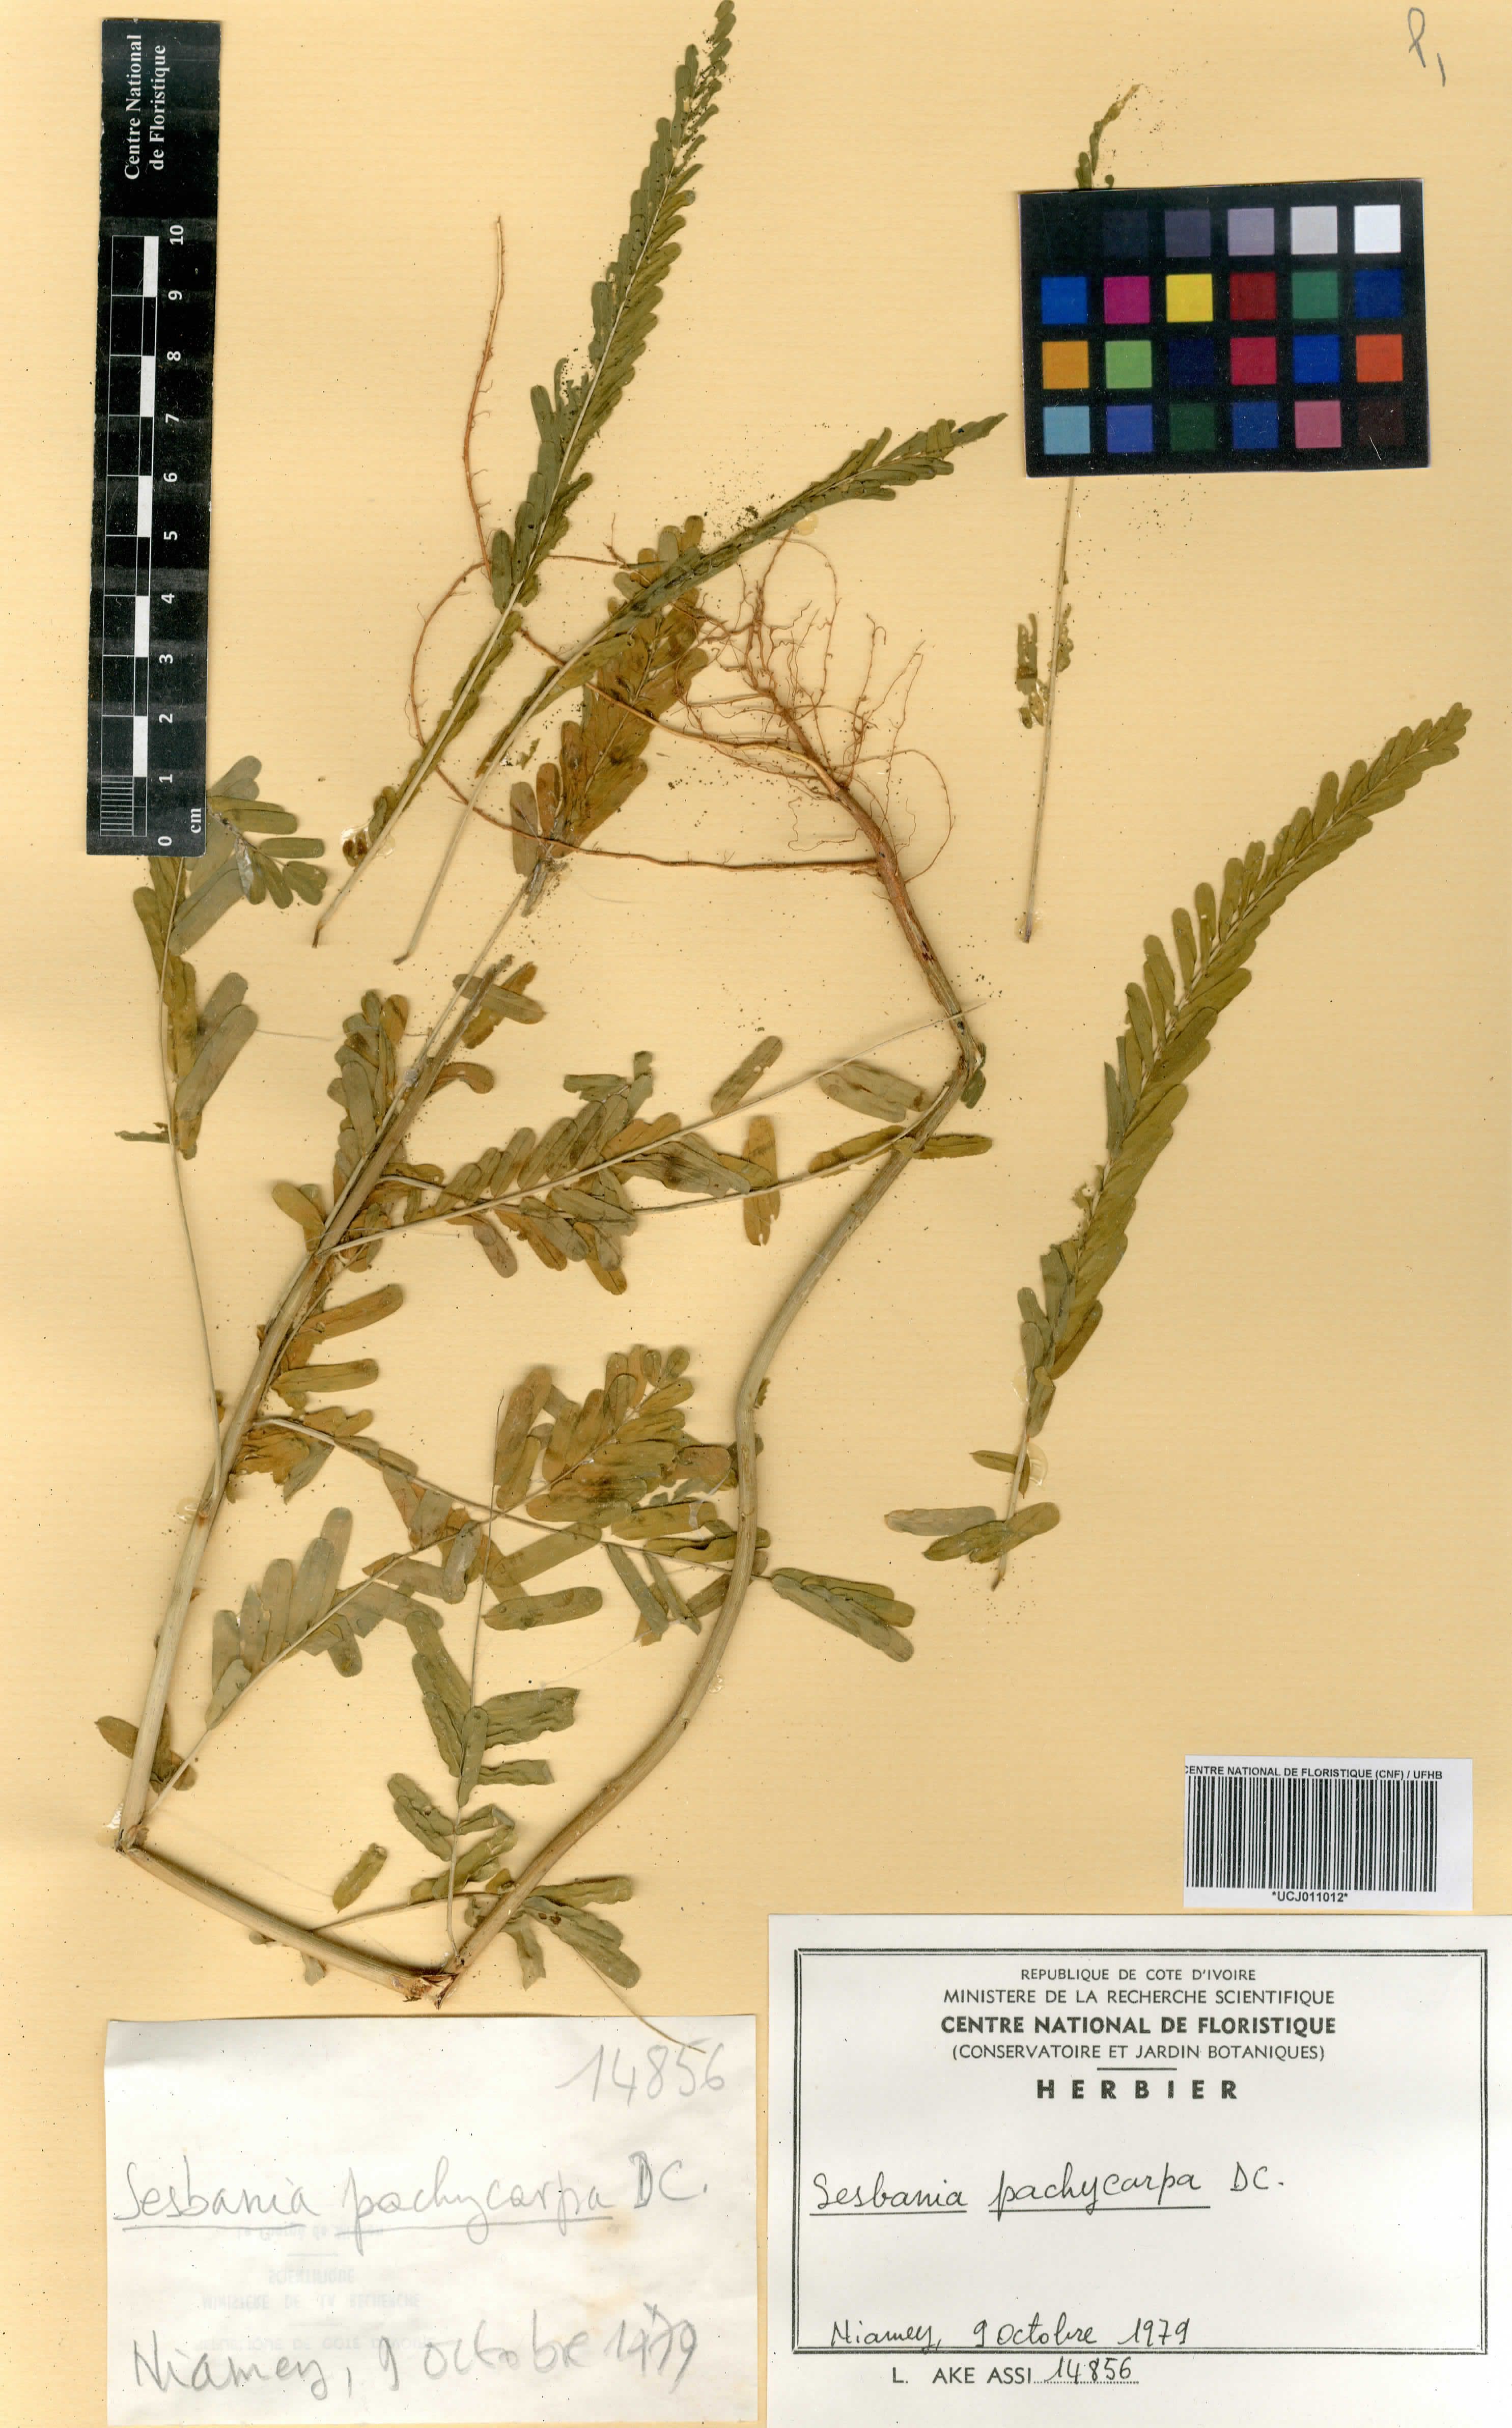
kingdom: Plantae
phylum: Tracheophyta
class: Magnoliopsida
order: Fabales
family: Fabaceae
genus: Sesbania
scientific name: Sesbania pachycarpa
